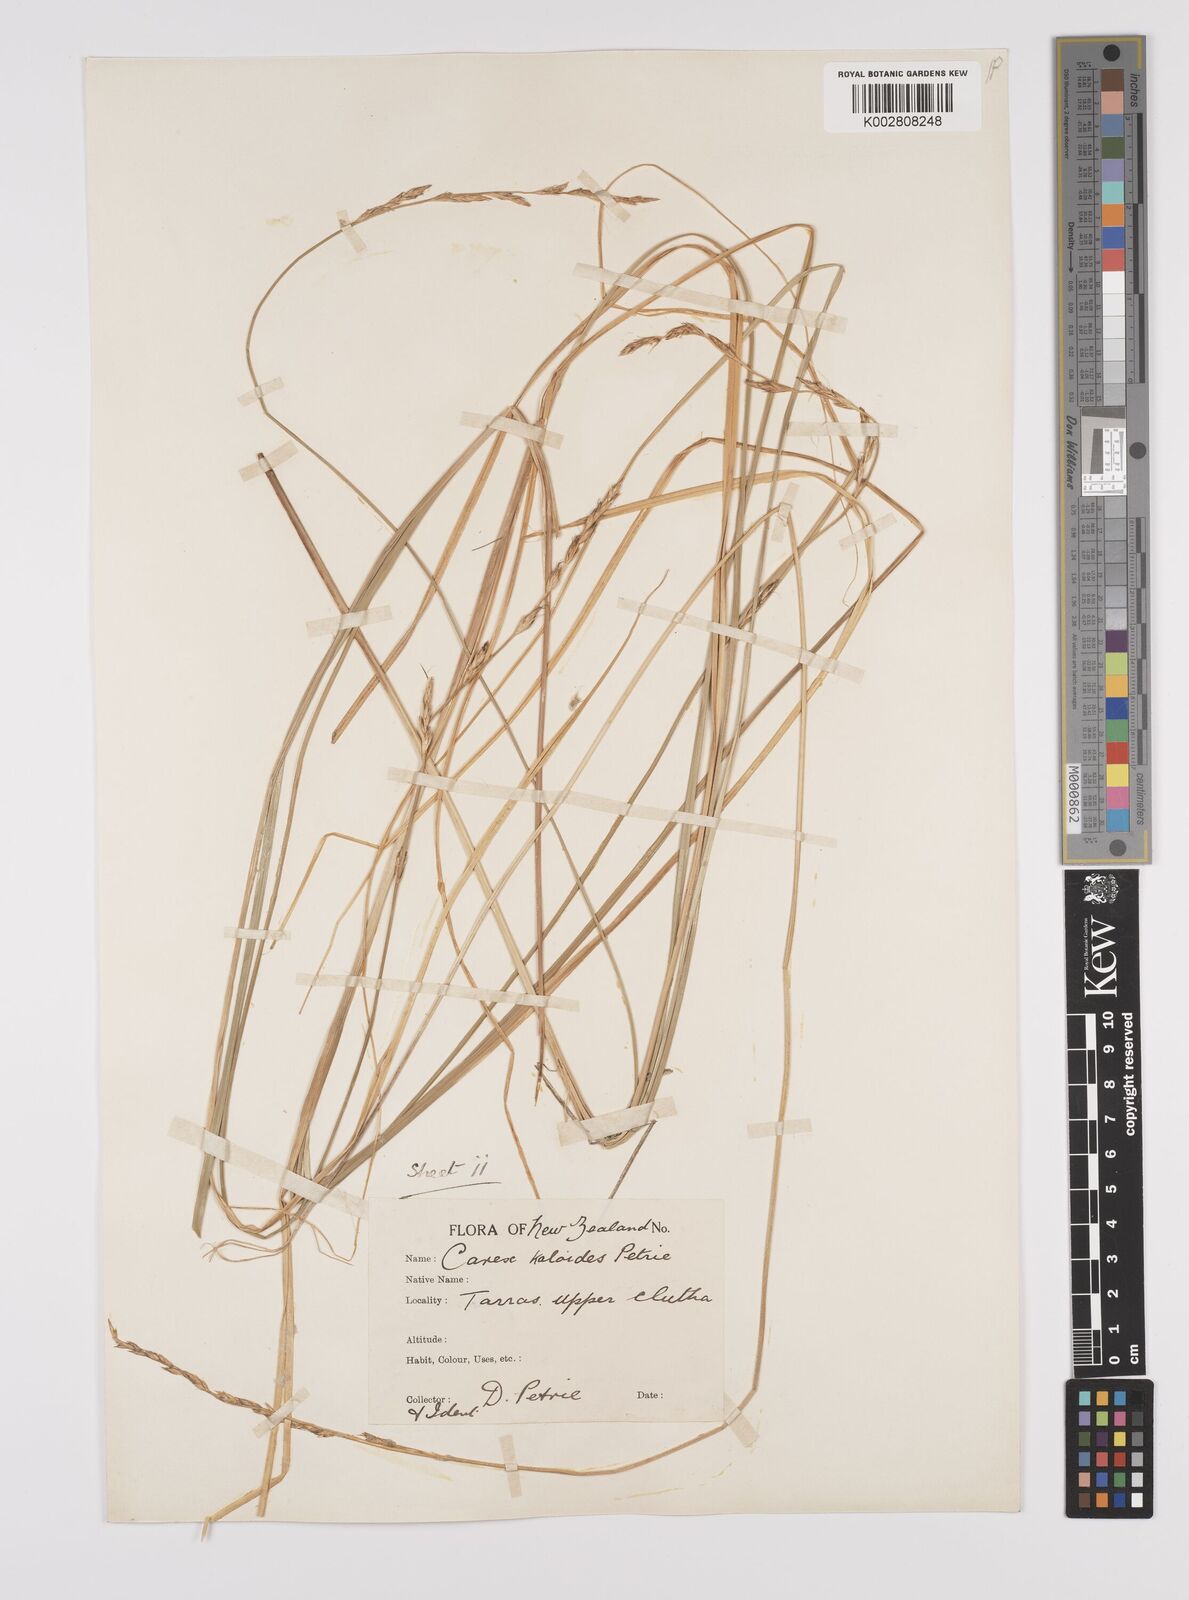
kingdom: Plantae
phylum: Tracheophyta
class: Liliopsida
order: Poales
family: Cyperaceae
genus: Carex
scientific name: Carex kaloides
